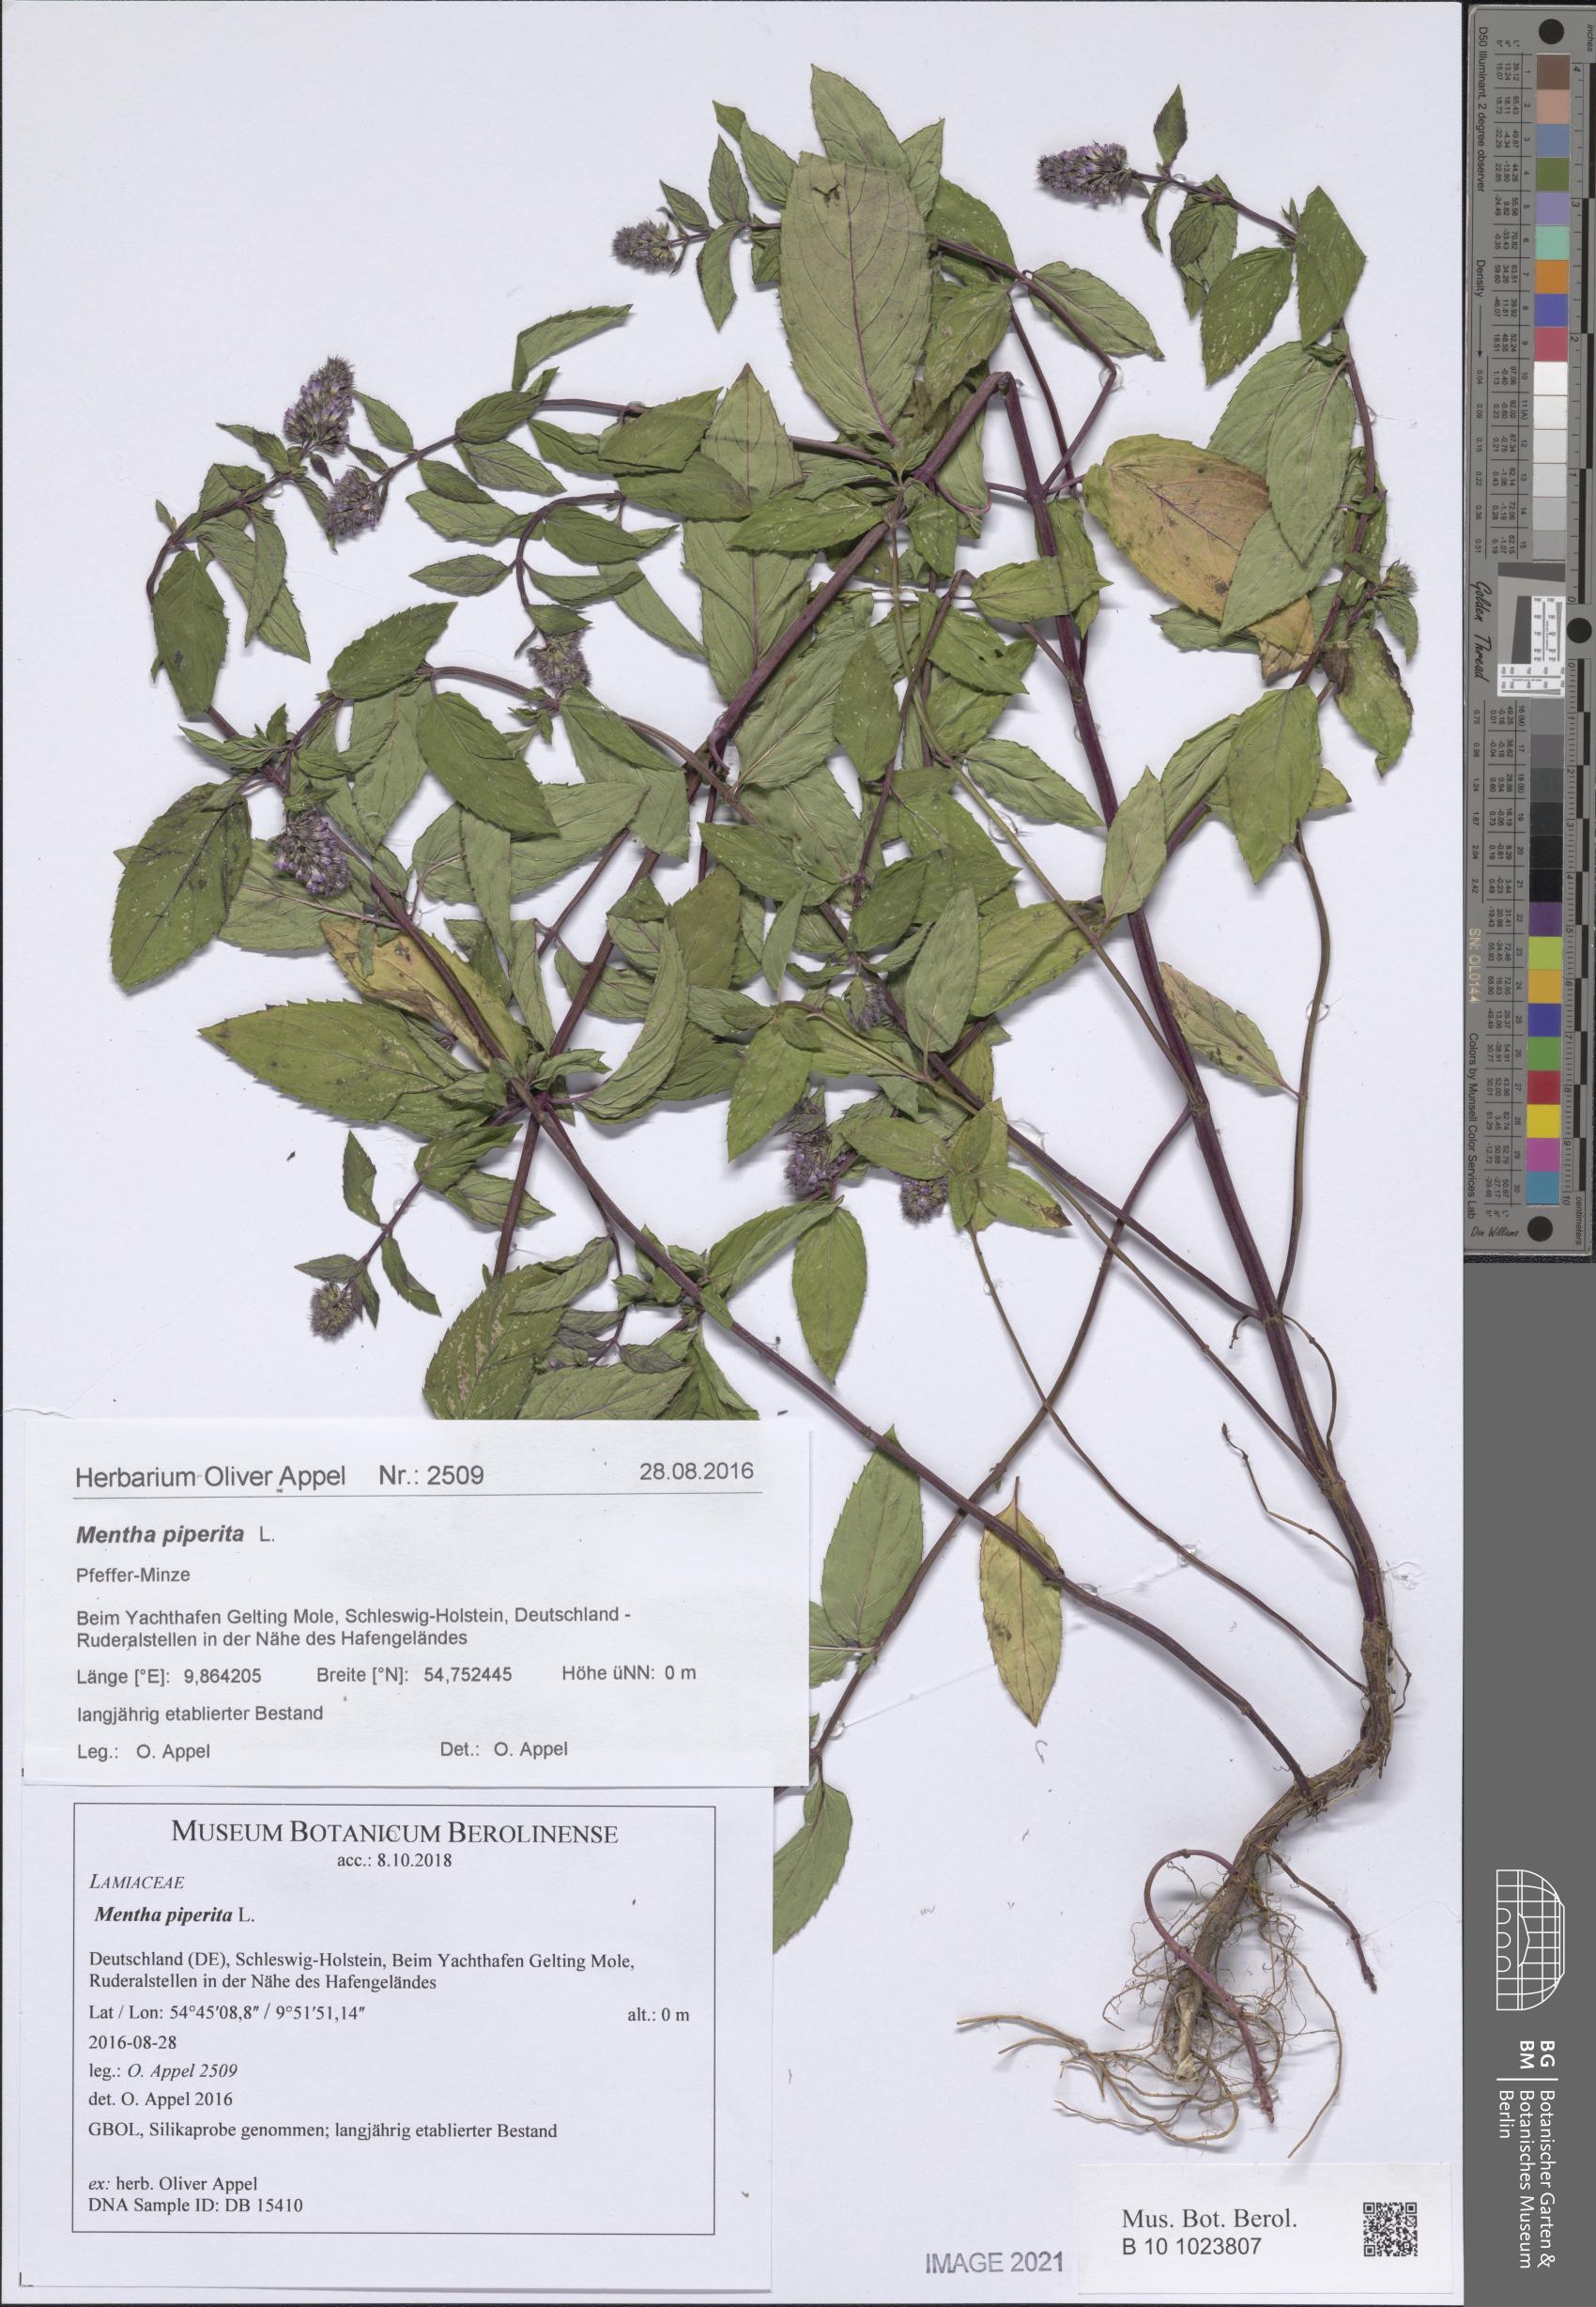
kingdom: Plantae
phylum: Tracheophyta
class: Magnoliopsida
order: Lamiales
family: Lamiaceae
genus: Mentha
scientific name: Mentha piperita
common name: Peppermint
